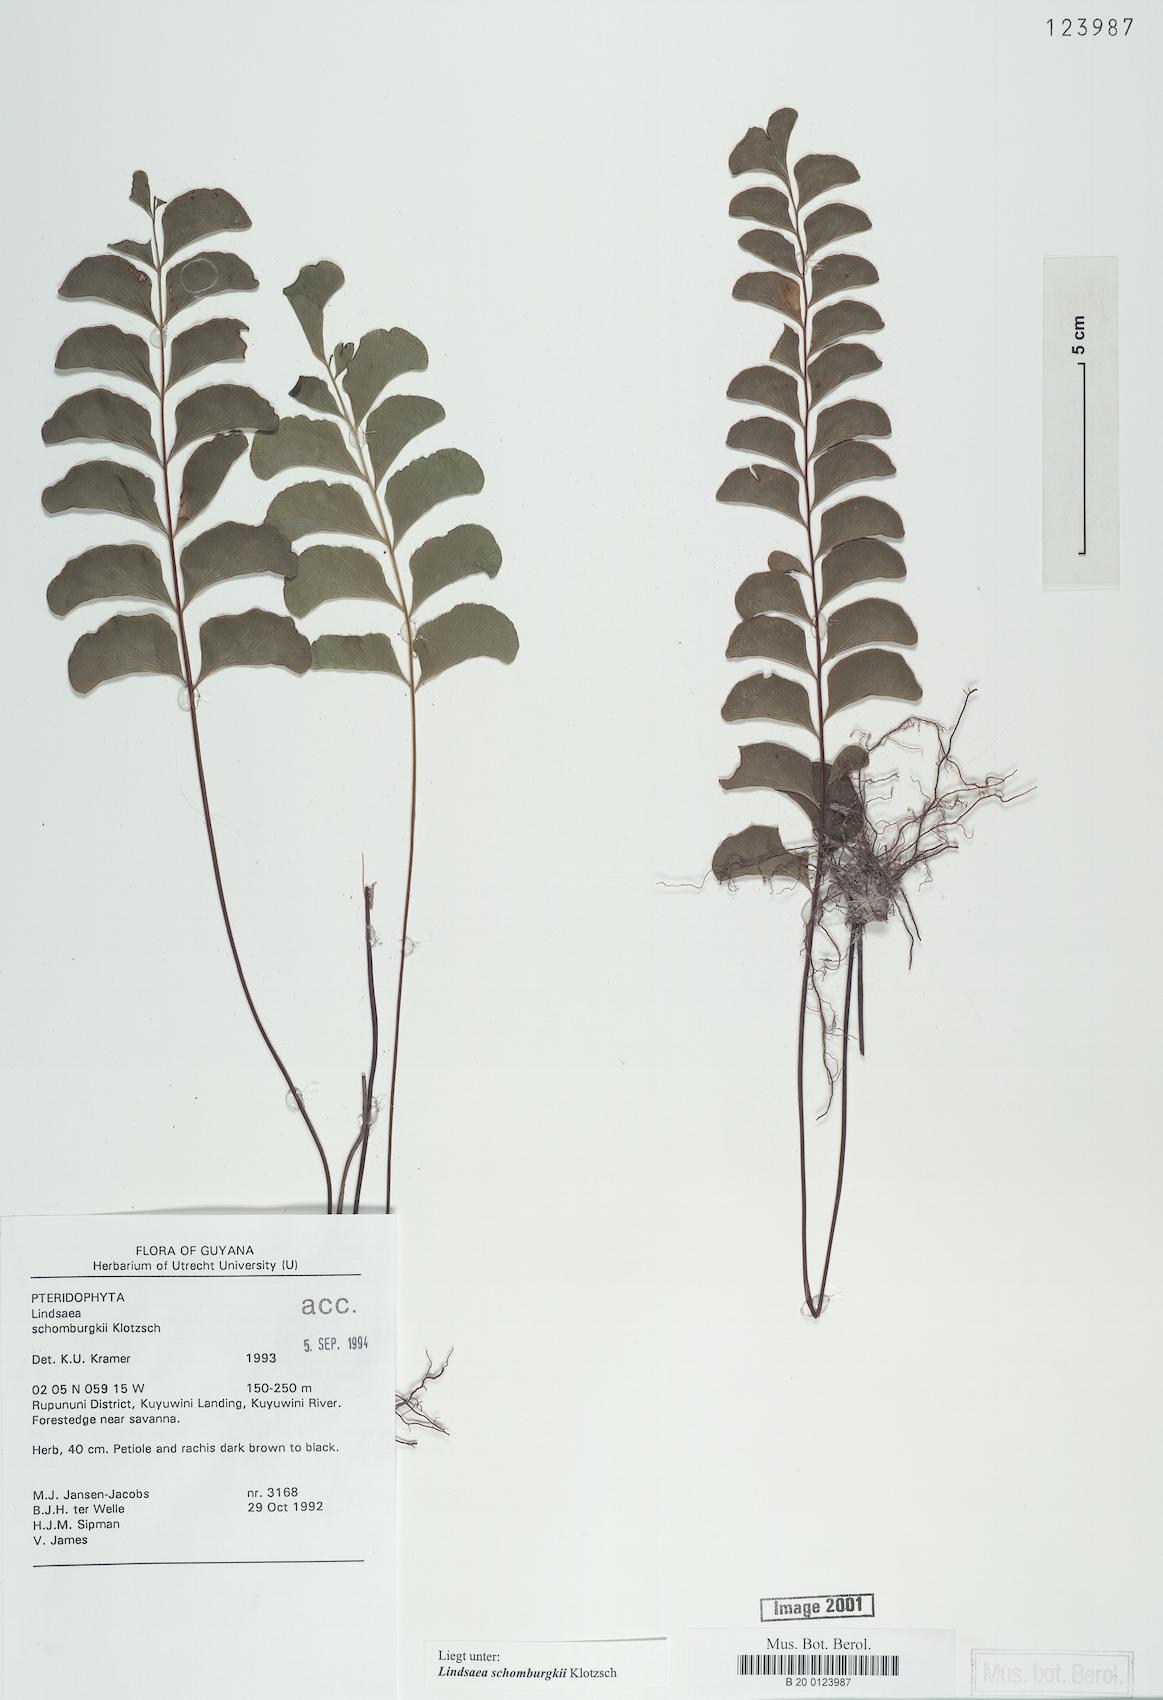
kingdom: Plantae
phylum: Tracheophyta
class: Polypodiopsida
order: Polypodiales
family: Lindsaeaceae
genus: Lindsaea
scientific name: Lindsaea schomburgkii
